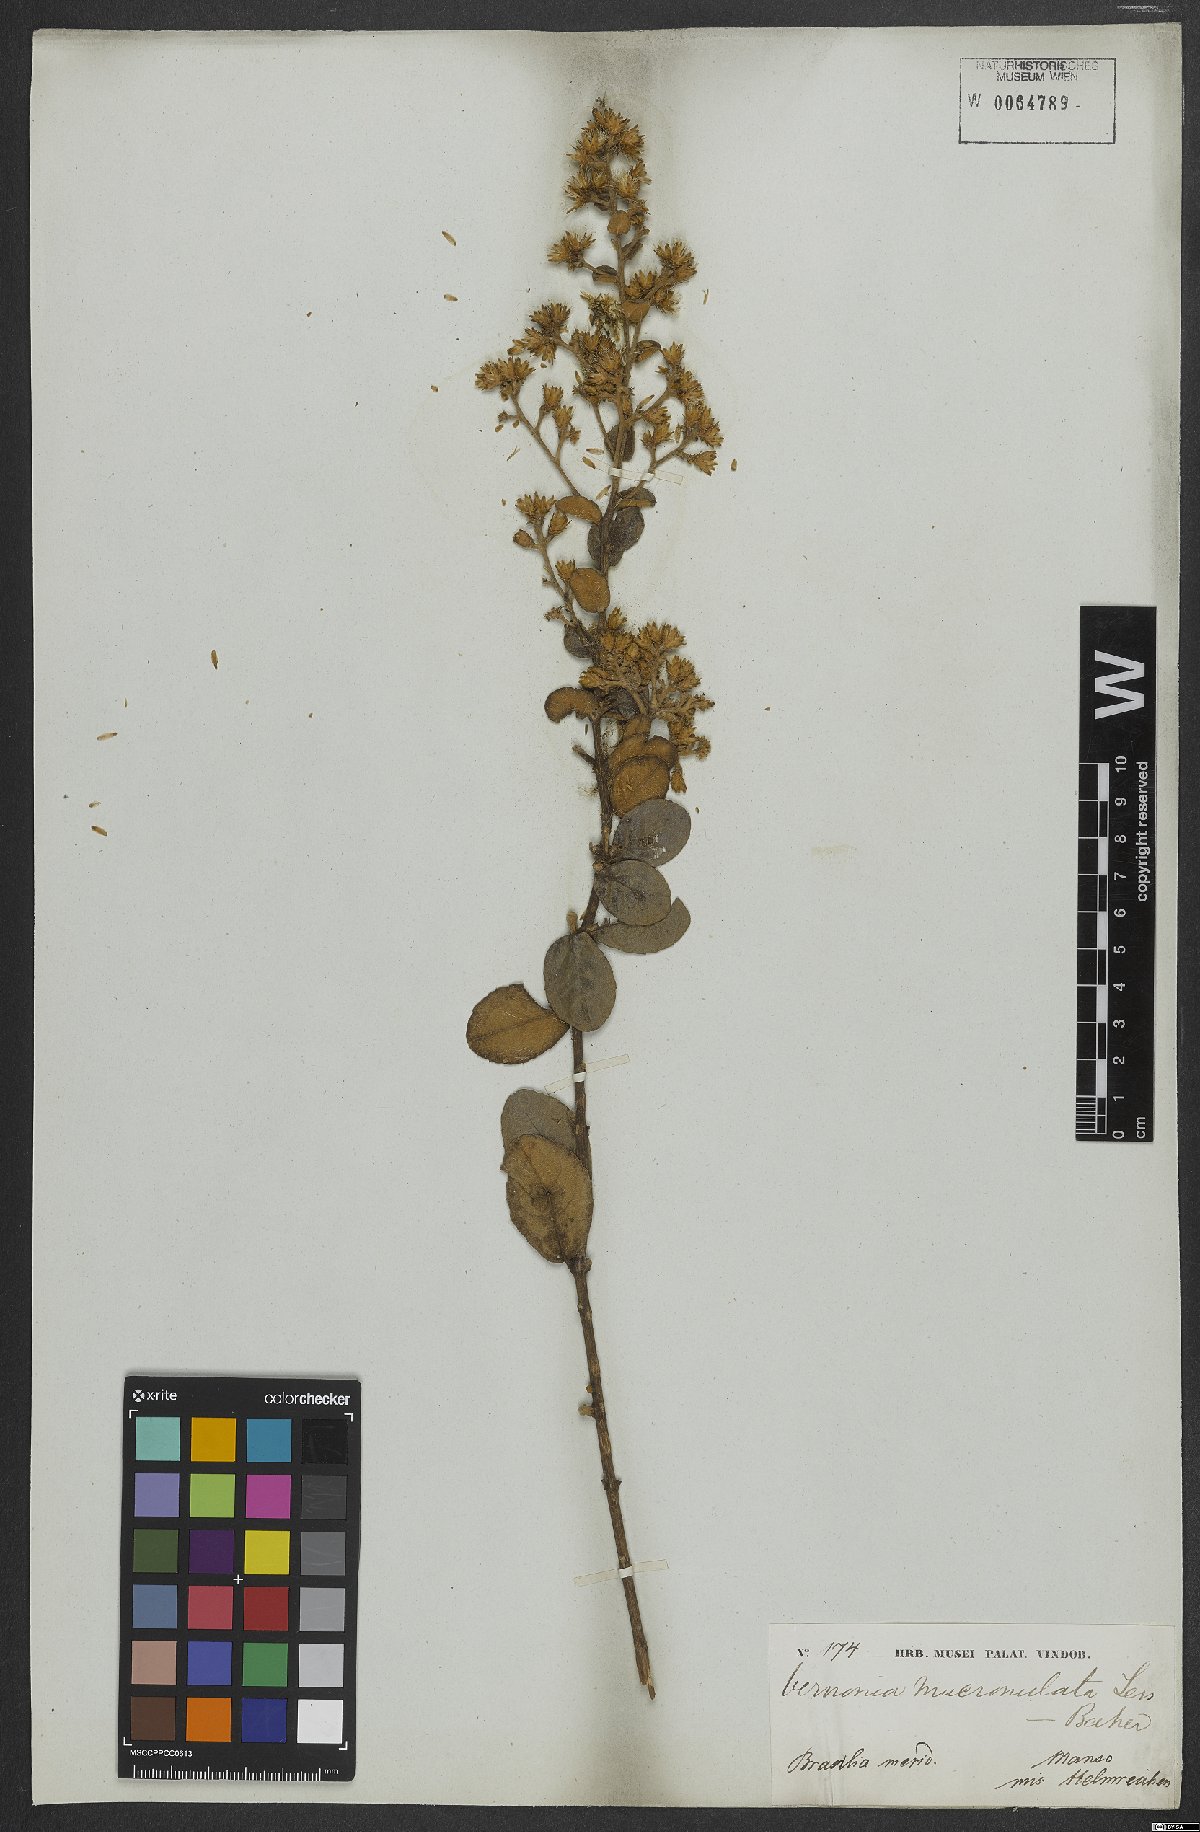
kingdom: Plantae
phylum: Tracheophyta
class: Magnoliopsida
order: Asterales
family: Asteraceae
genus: Vernonanthura
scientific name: Vernonanthura mucronulata
